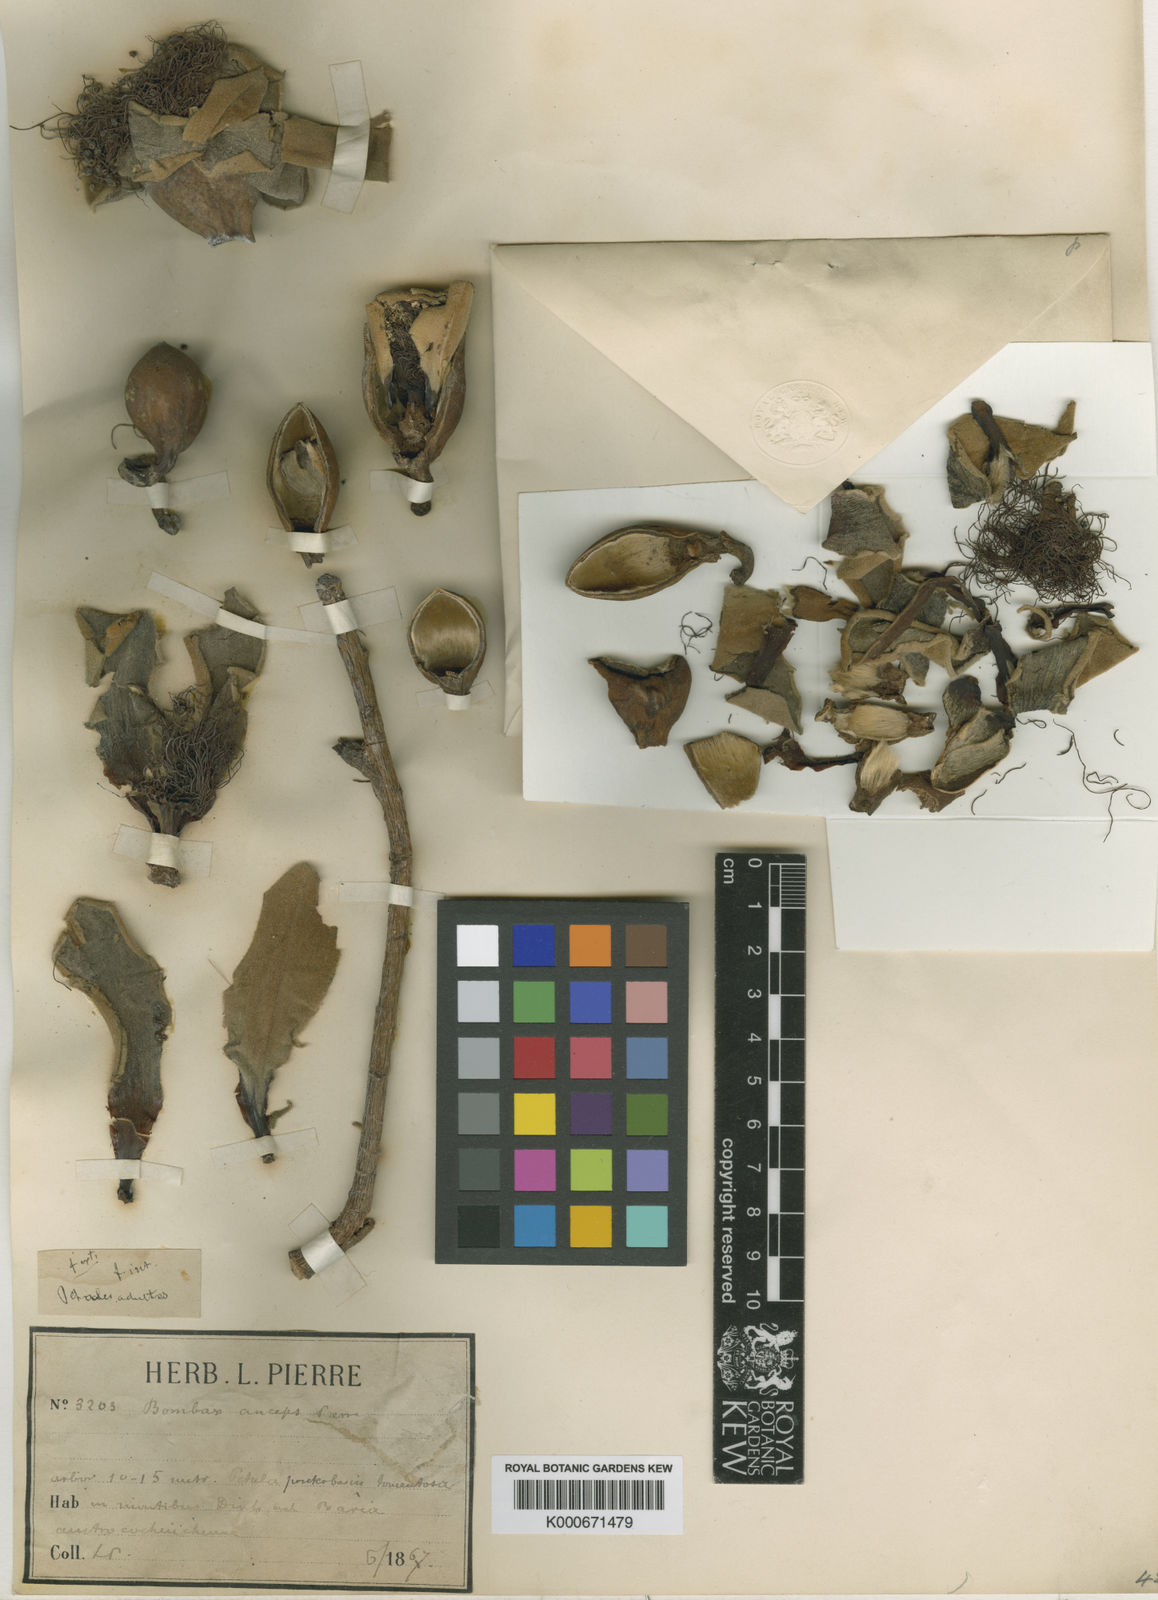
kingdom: Plantae
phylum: Tracheophyta
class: Magnoliopsida
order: Malvales
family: Malvaceae
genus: Bombax
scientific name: Bombax anceps
